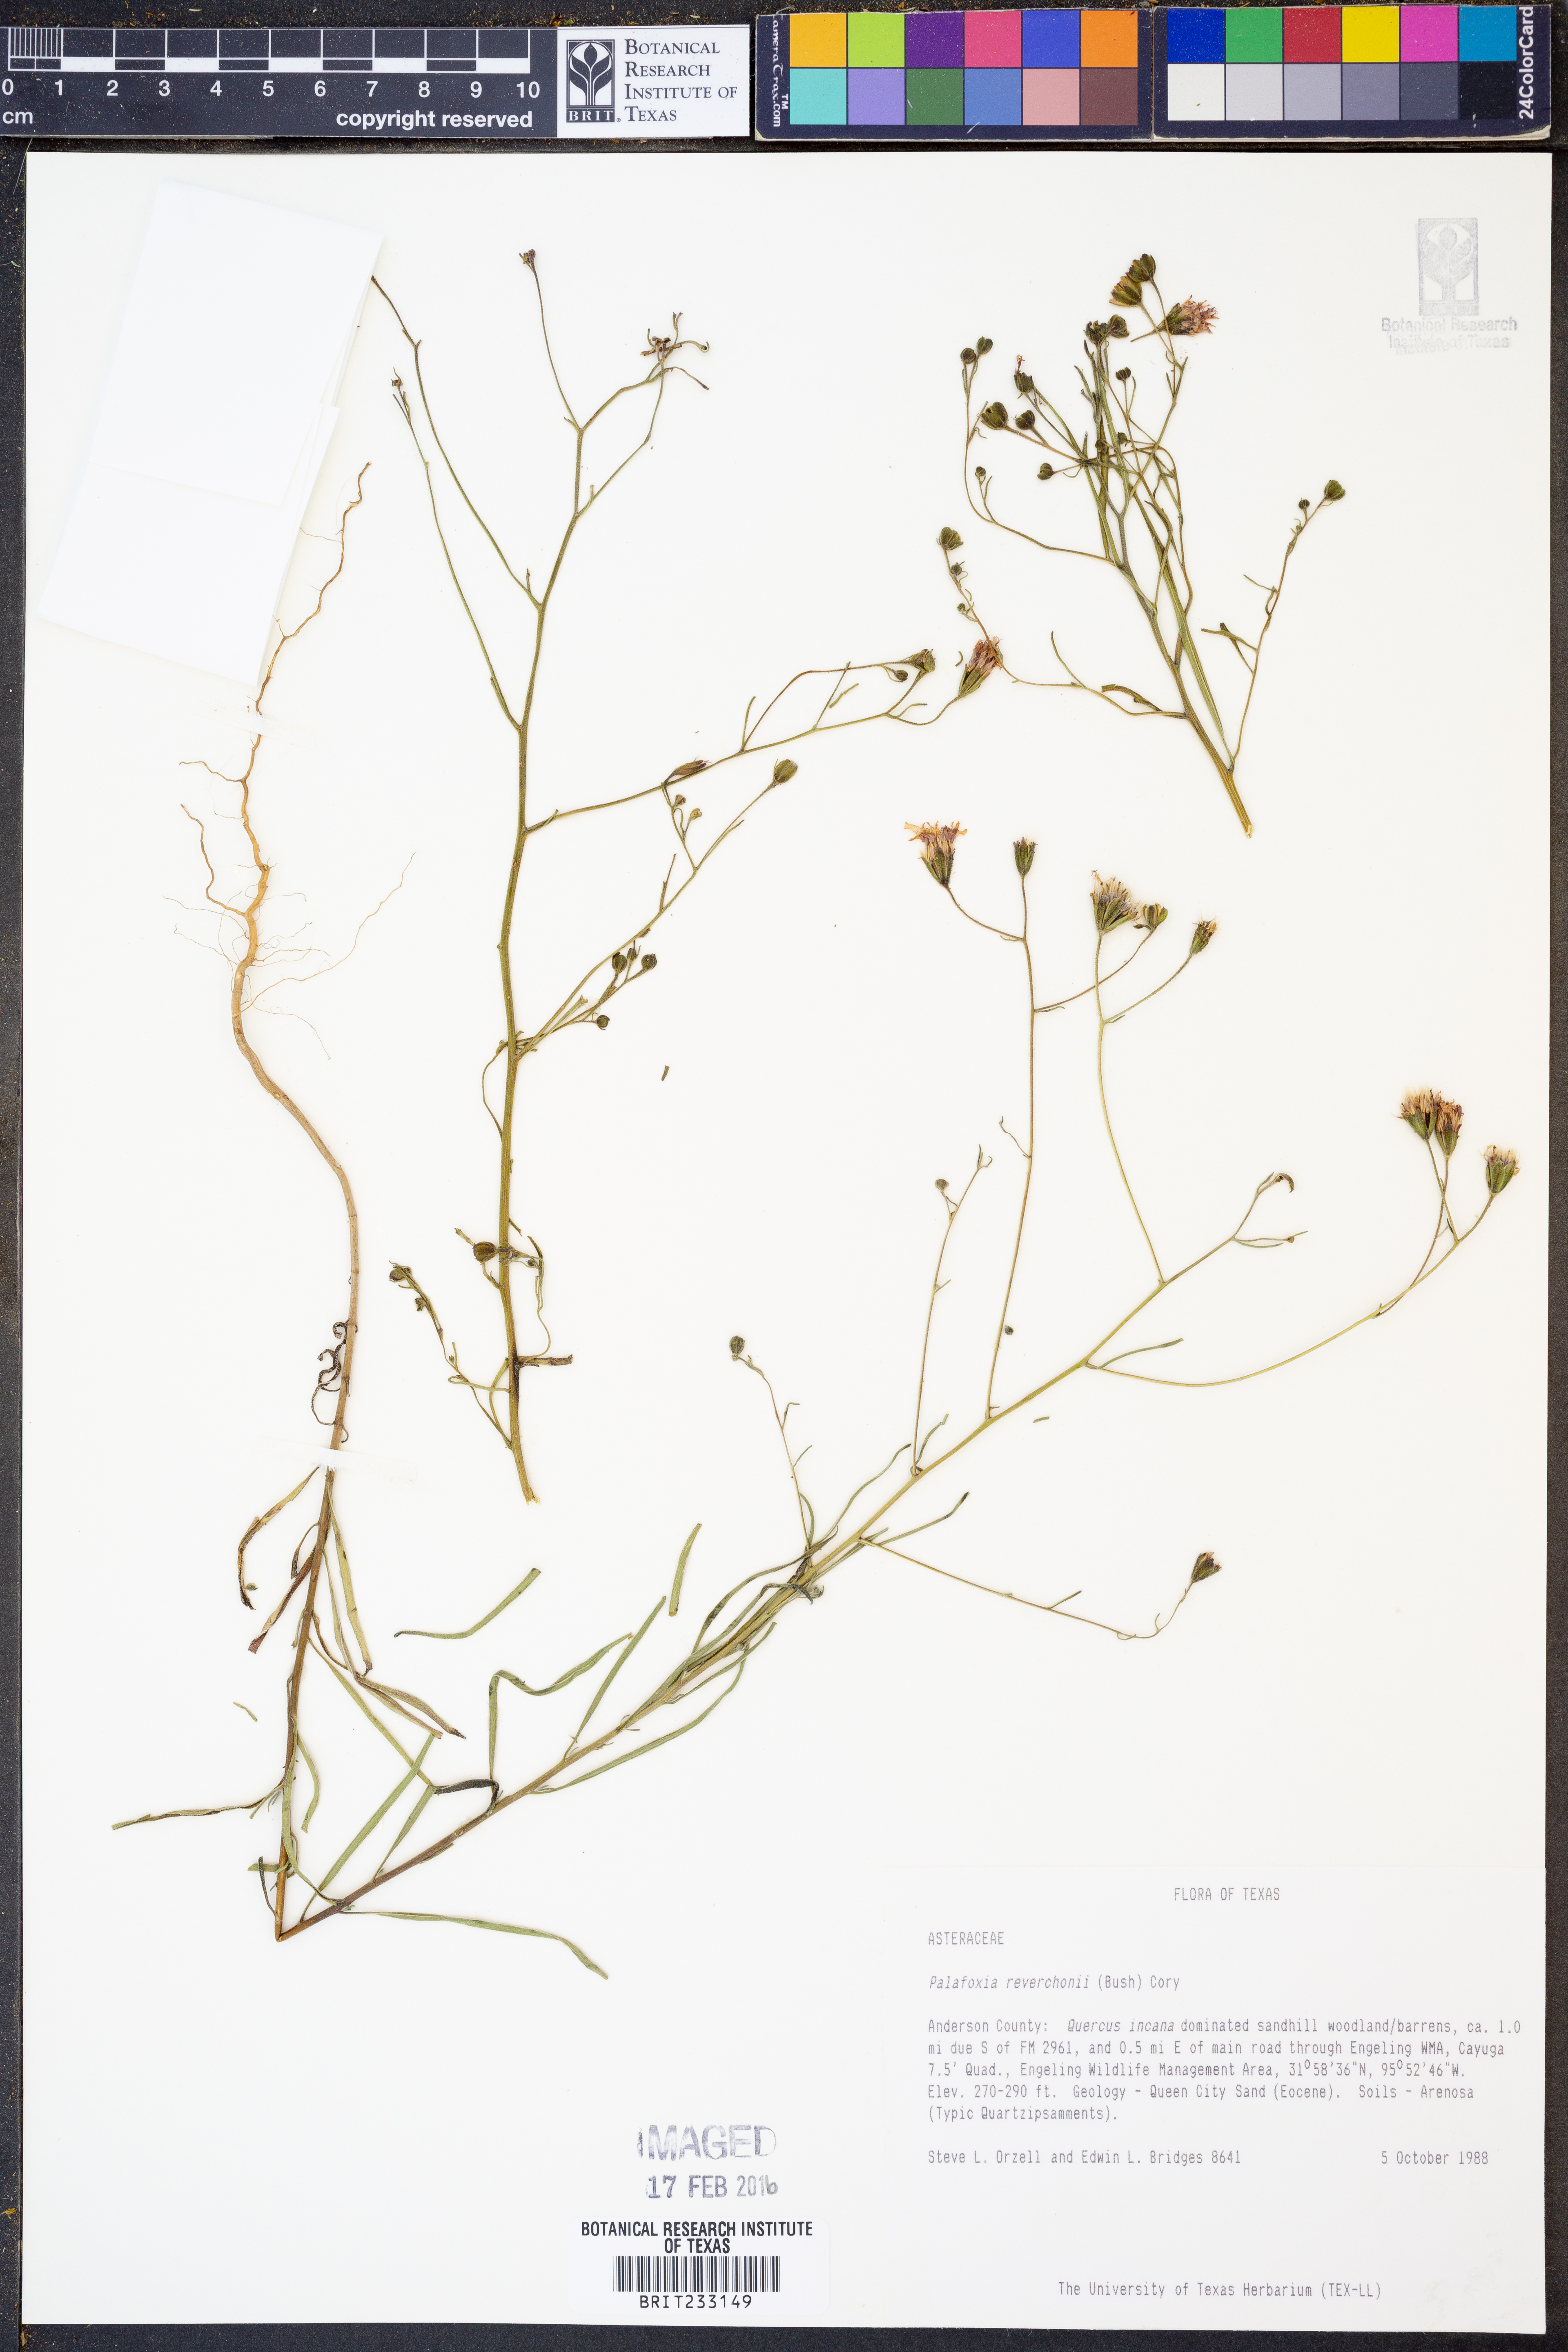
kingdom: Plantae
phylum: Tracheophyta
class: Magnoliopsida
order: Asterales
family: Asteraceae
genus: Palafoxia
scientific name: Palafoxia reverchonii
